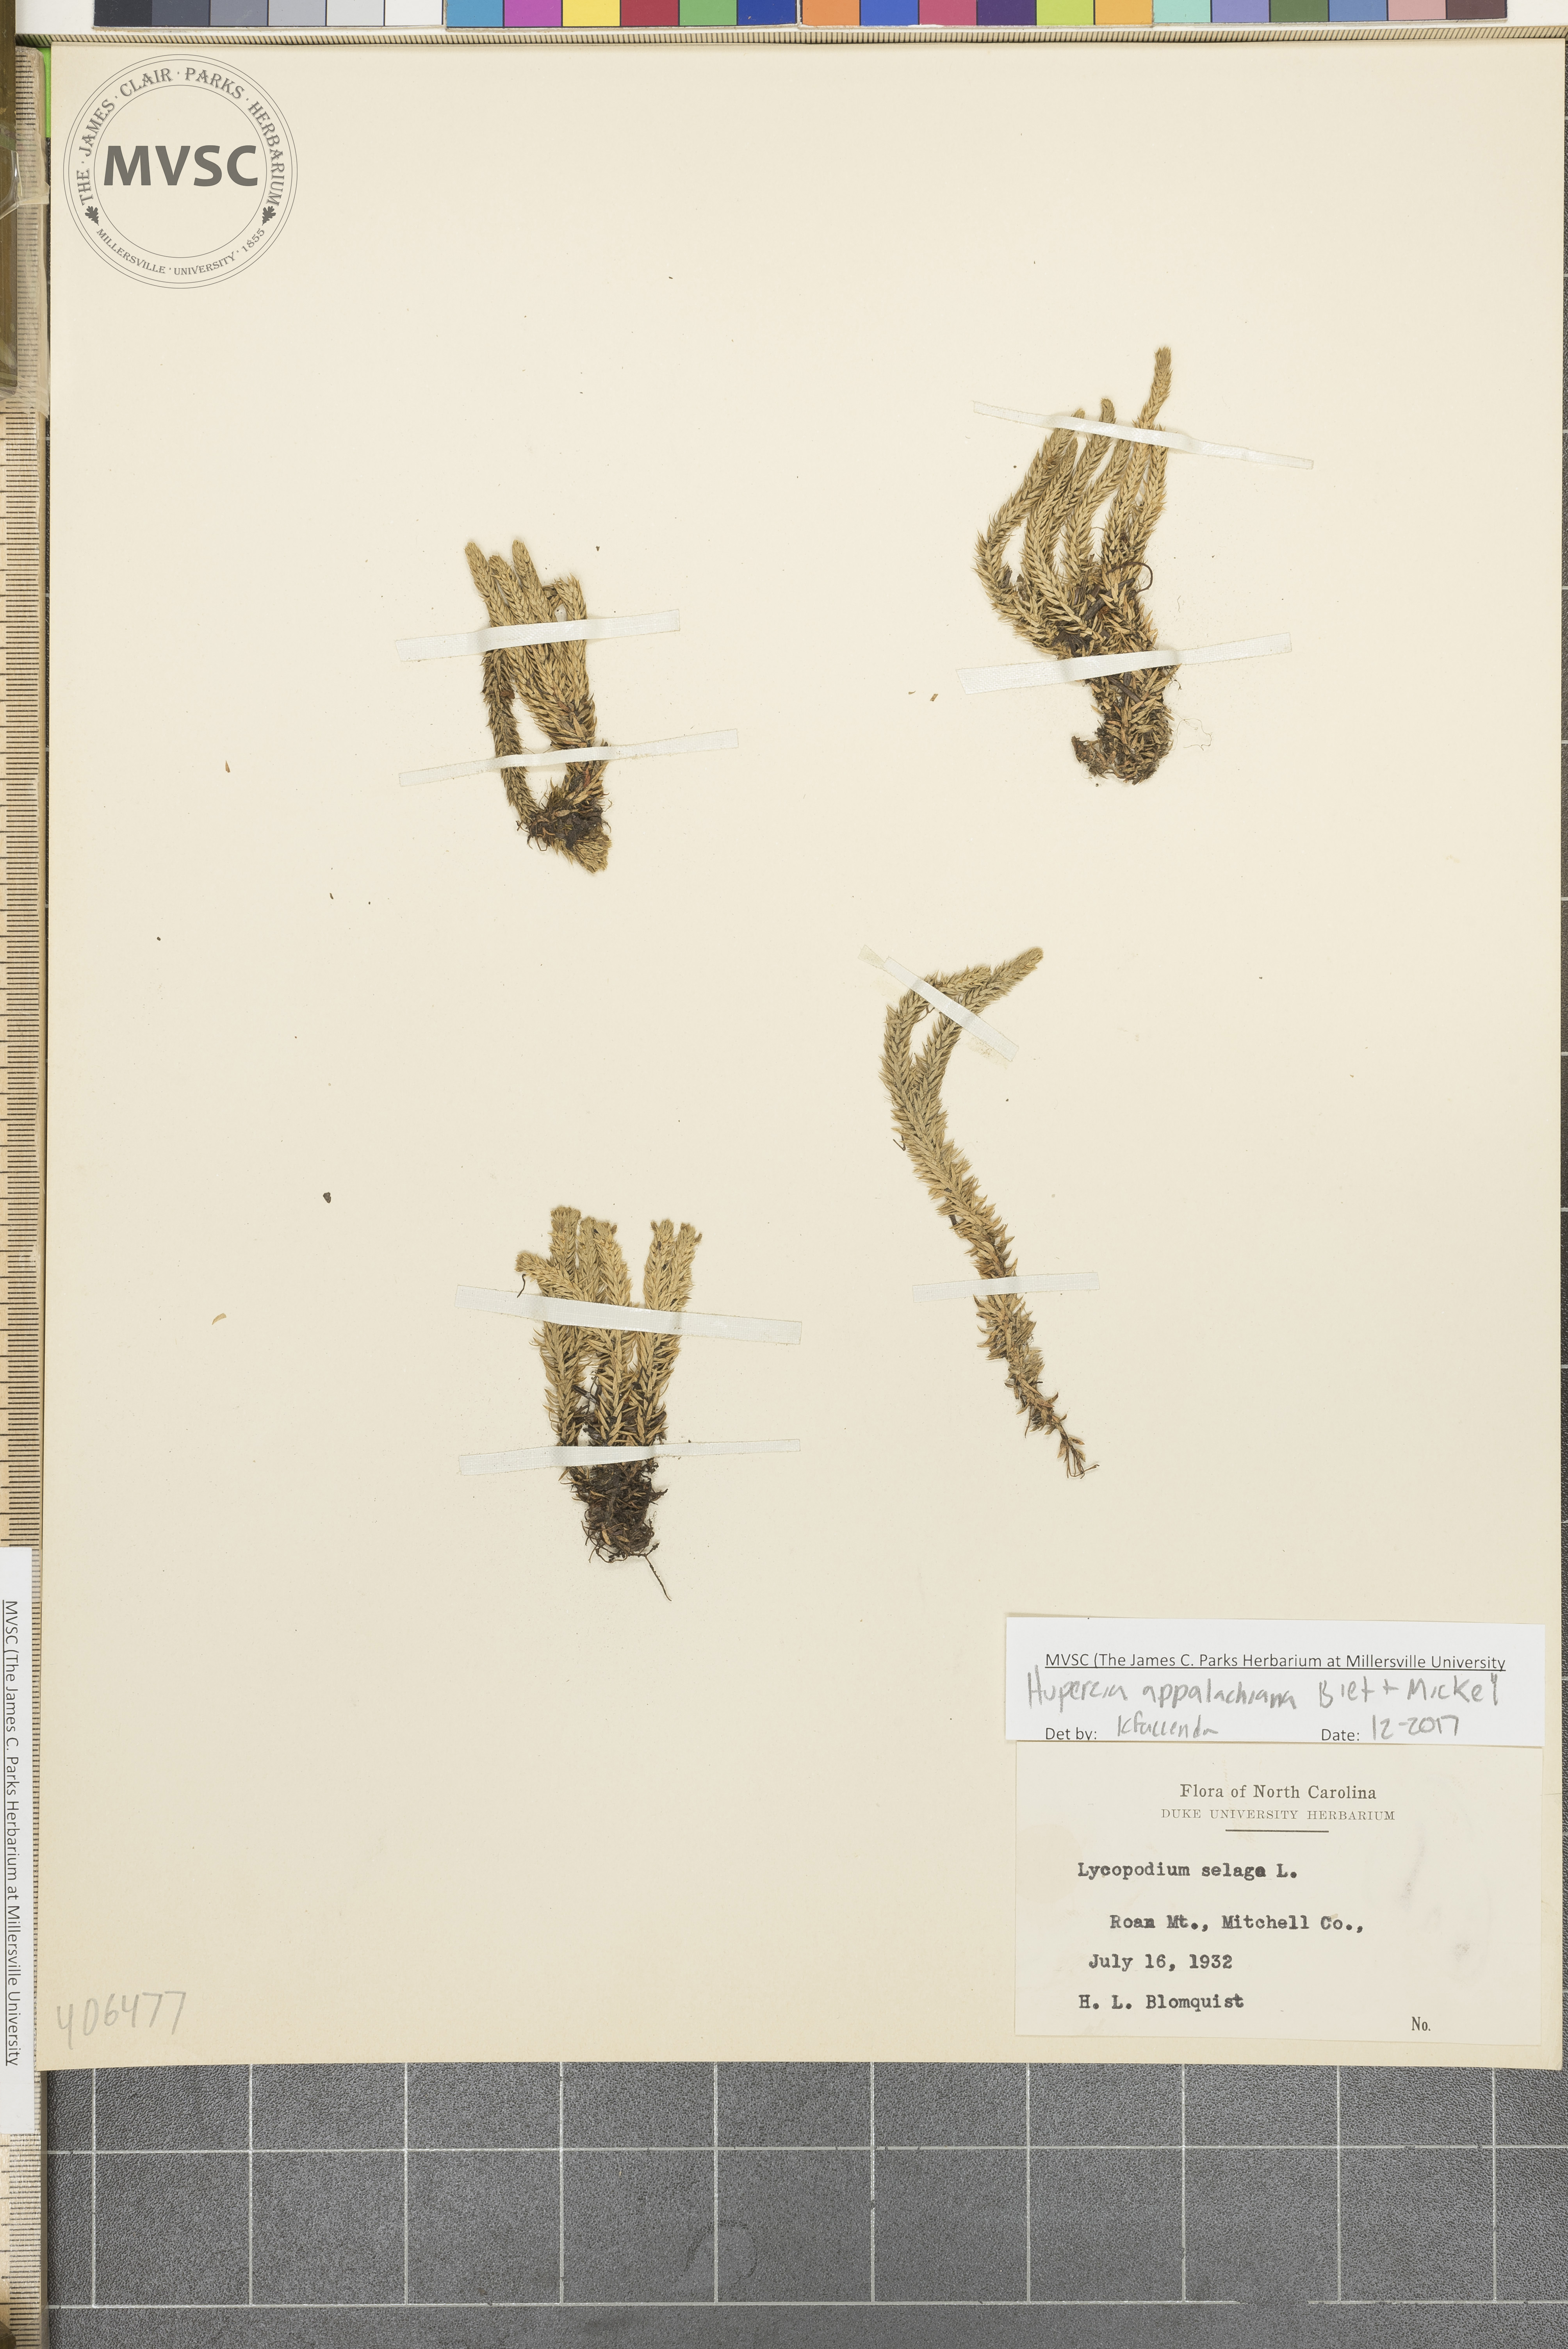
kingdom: Plantae
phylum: Tracheophyta
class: Lycopodiopsida
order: Lycopodiales
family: Lycopodiaceae
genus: Huperzia
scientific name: Huperzia appalachiana
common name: Appalachian clubmoss
